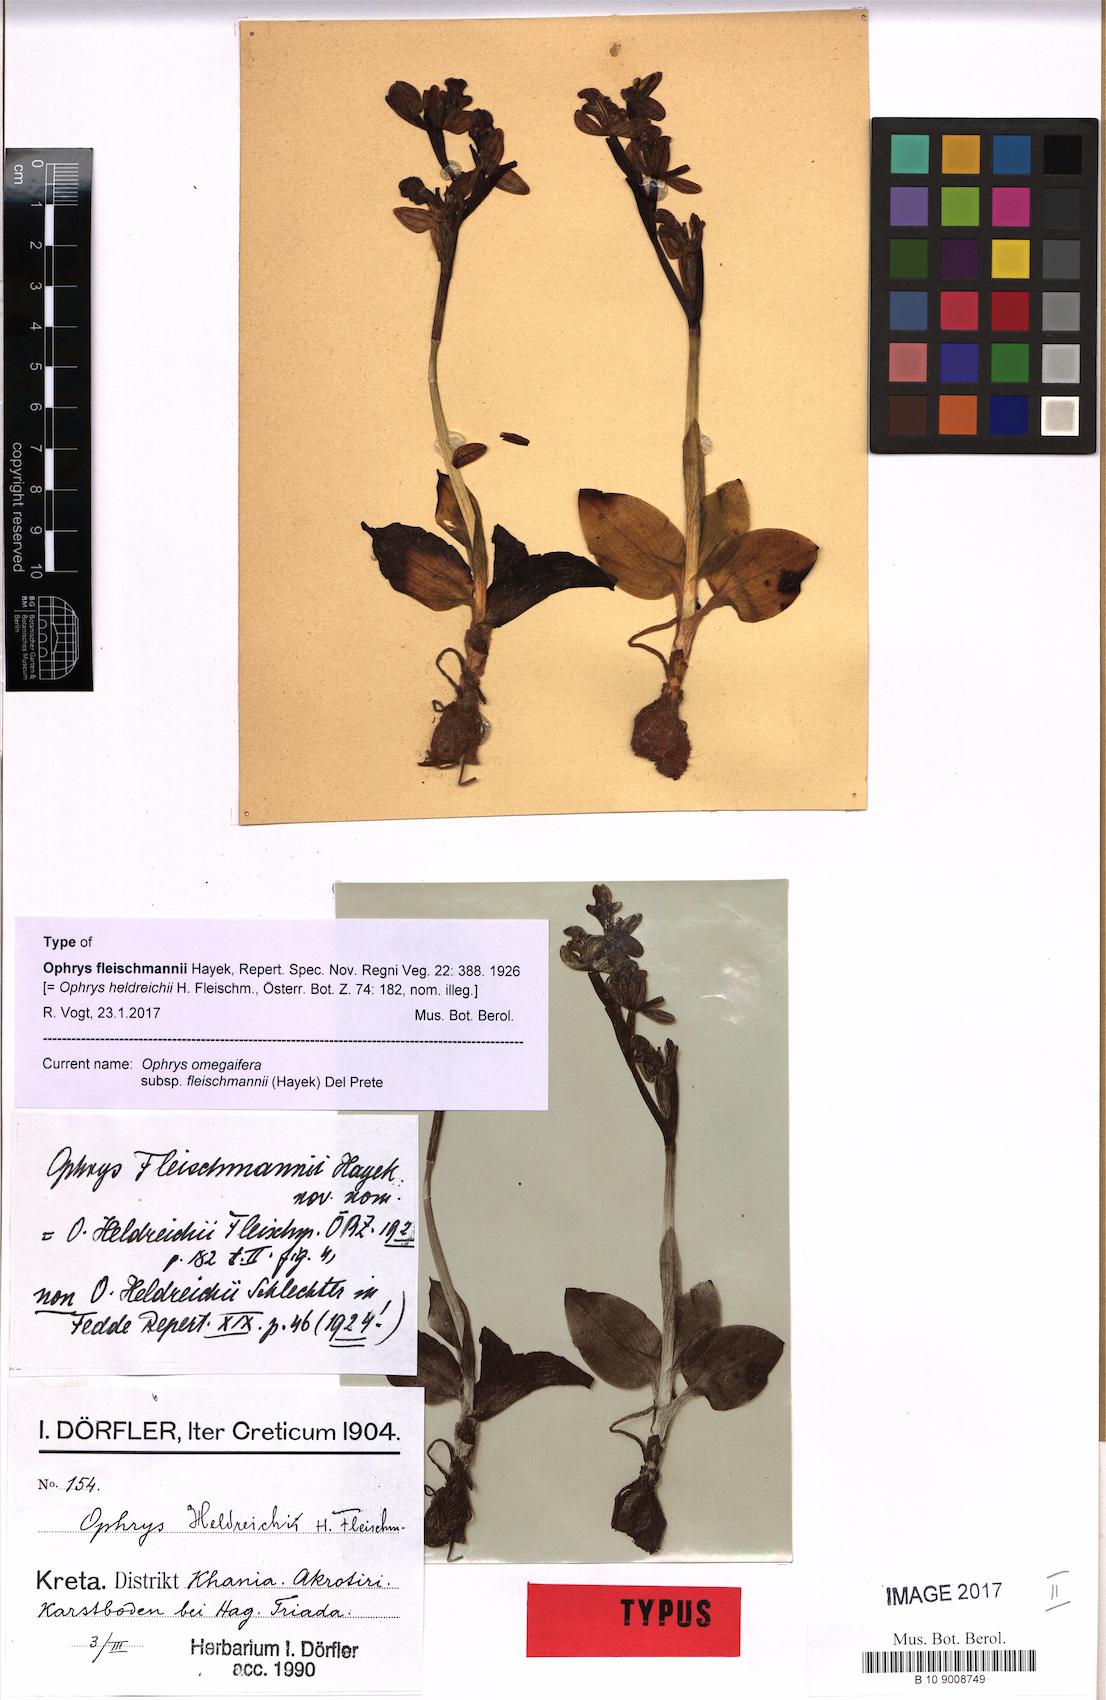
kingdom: Plantae
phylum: Tracheophyta
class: Liliopsida
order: Asparagales
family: Orchidaceae
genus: Ophrys
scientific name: Ophrys omegaifera
